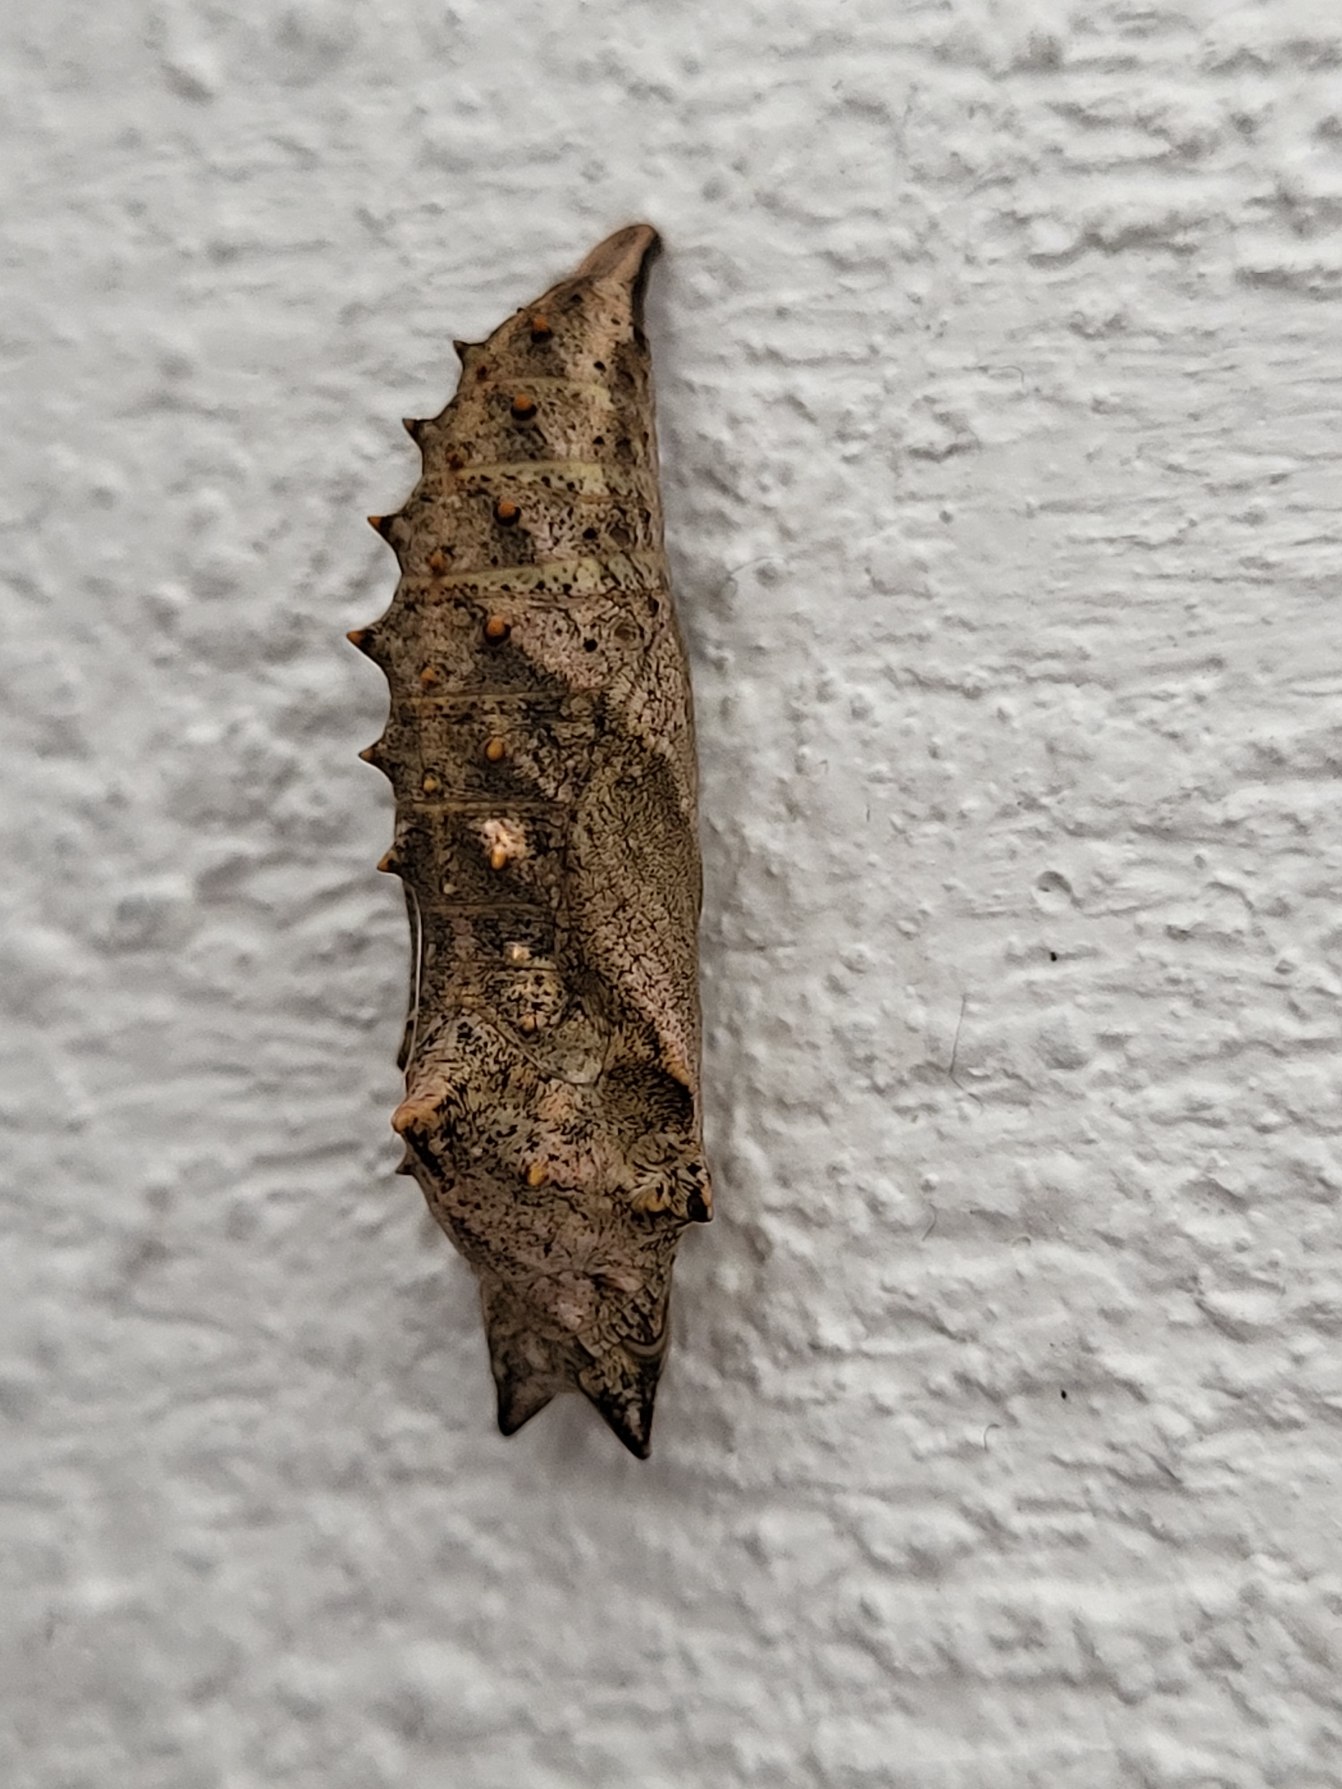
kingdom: Animalia
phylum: Arthropoda
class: Insecta
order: Lepidoptera
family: Nymphalidae
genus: Aglais
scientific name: Aglais urticae
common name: Nældens takvinge
